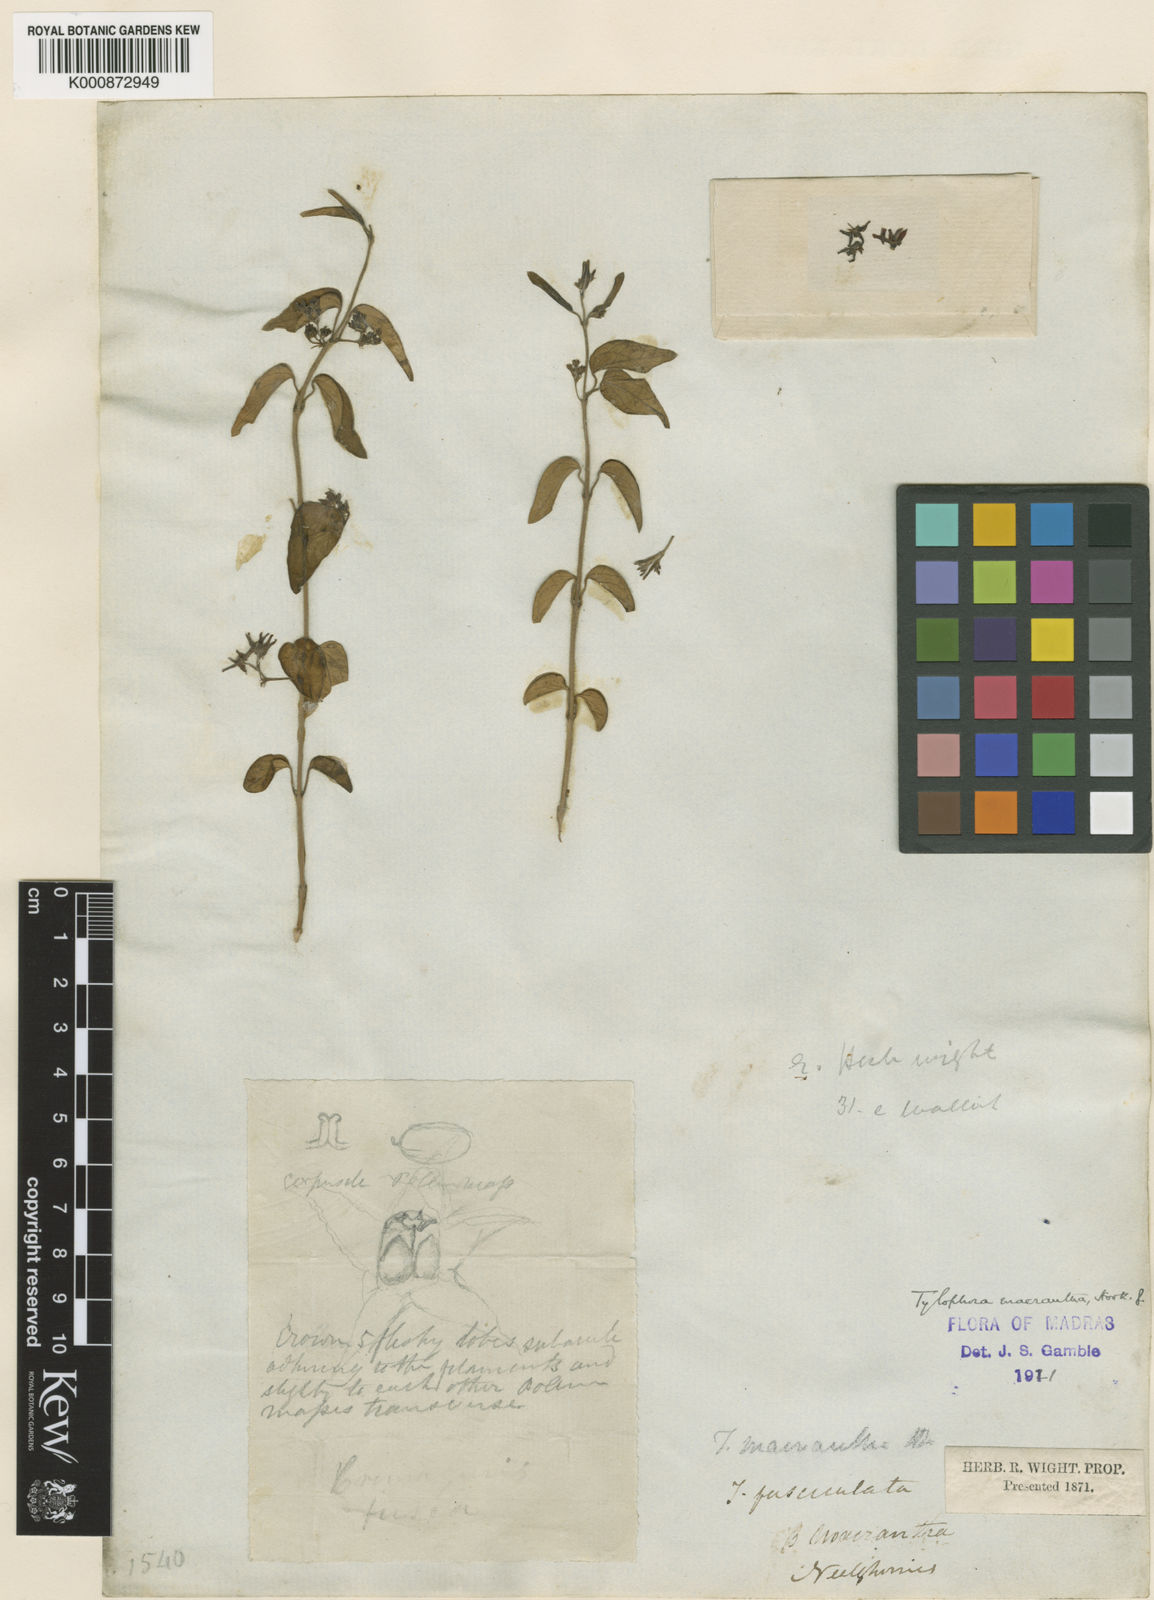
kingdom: Plantae
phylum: Tracheophyta
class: Magnoliopsida
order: Gentianales
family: Apocynaceae
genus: Vincetoxicum
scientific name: Vincetoxicum hookerianum
